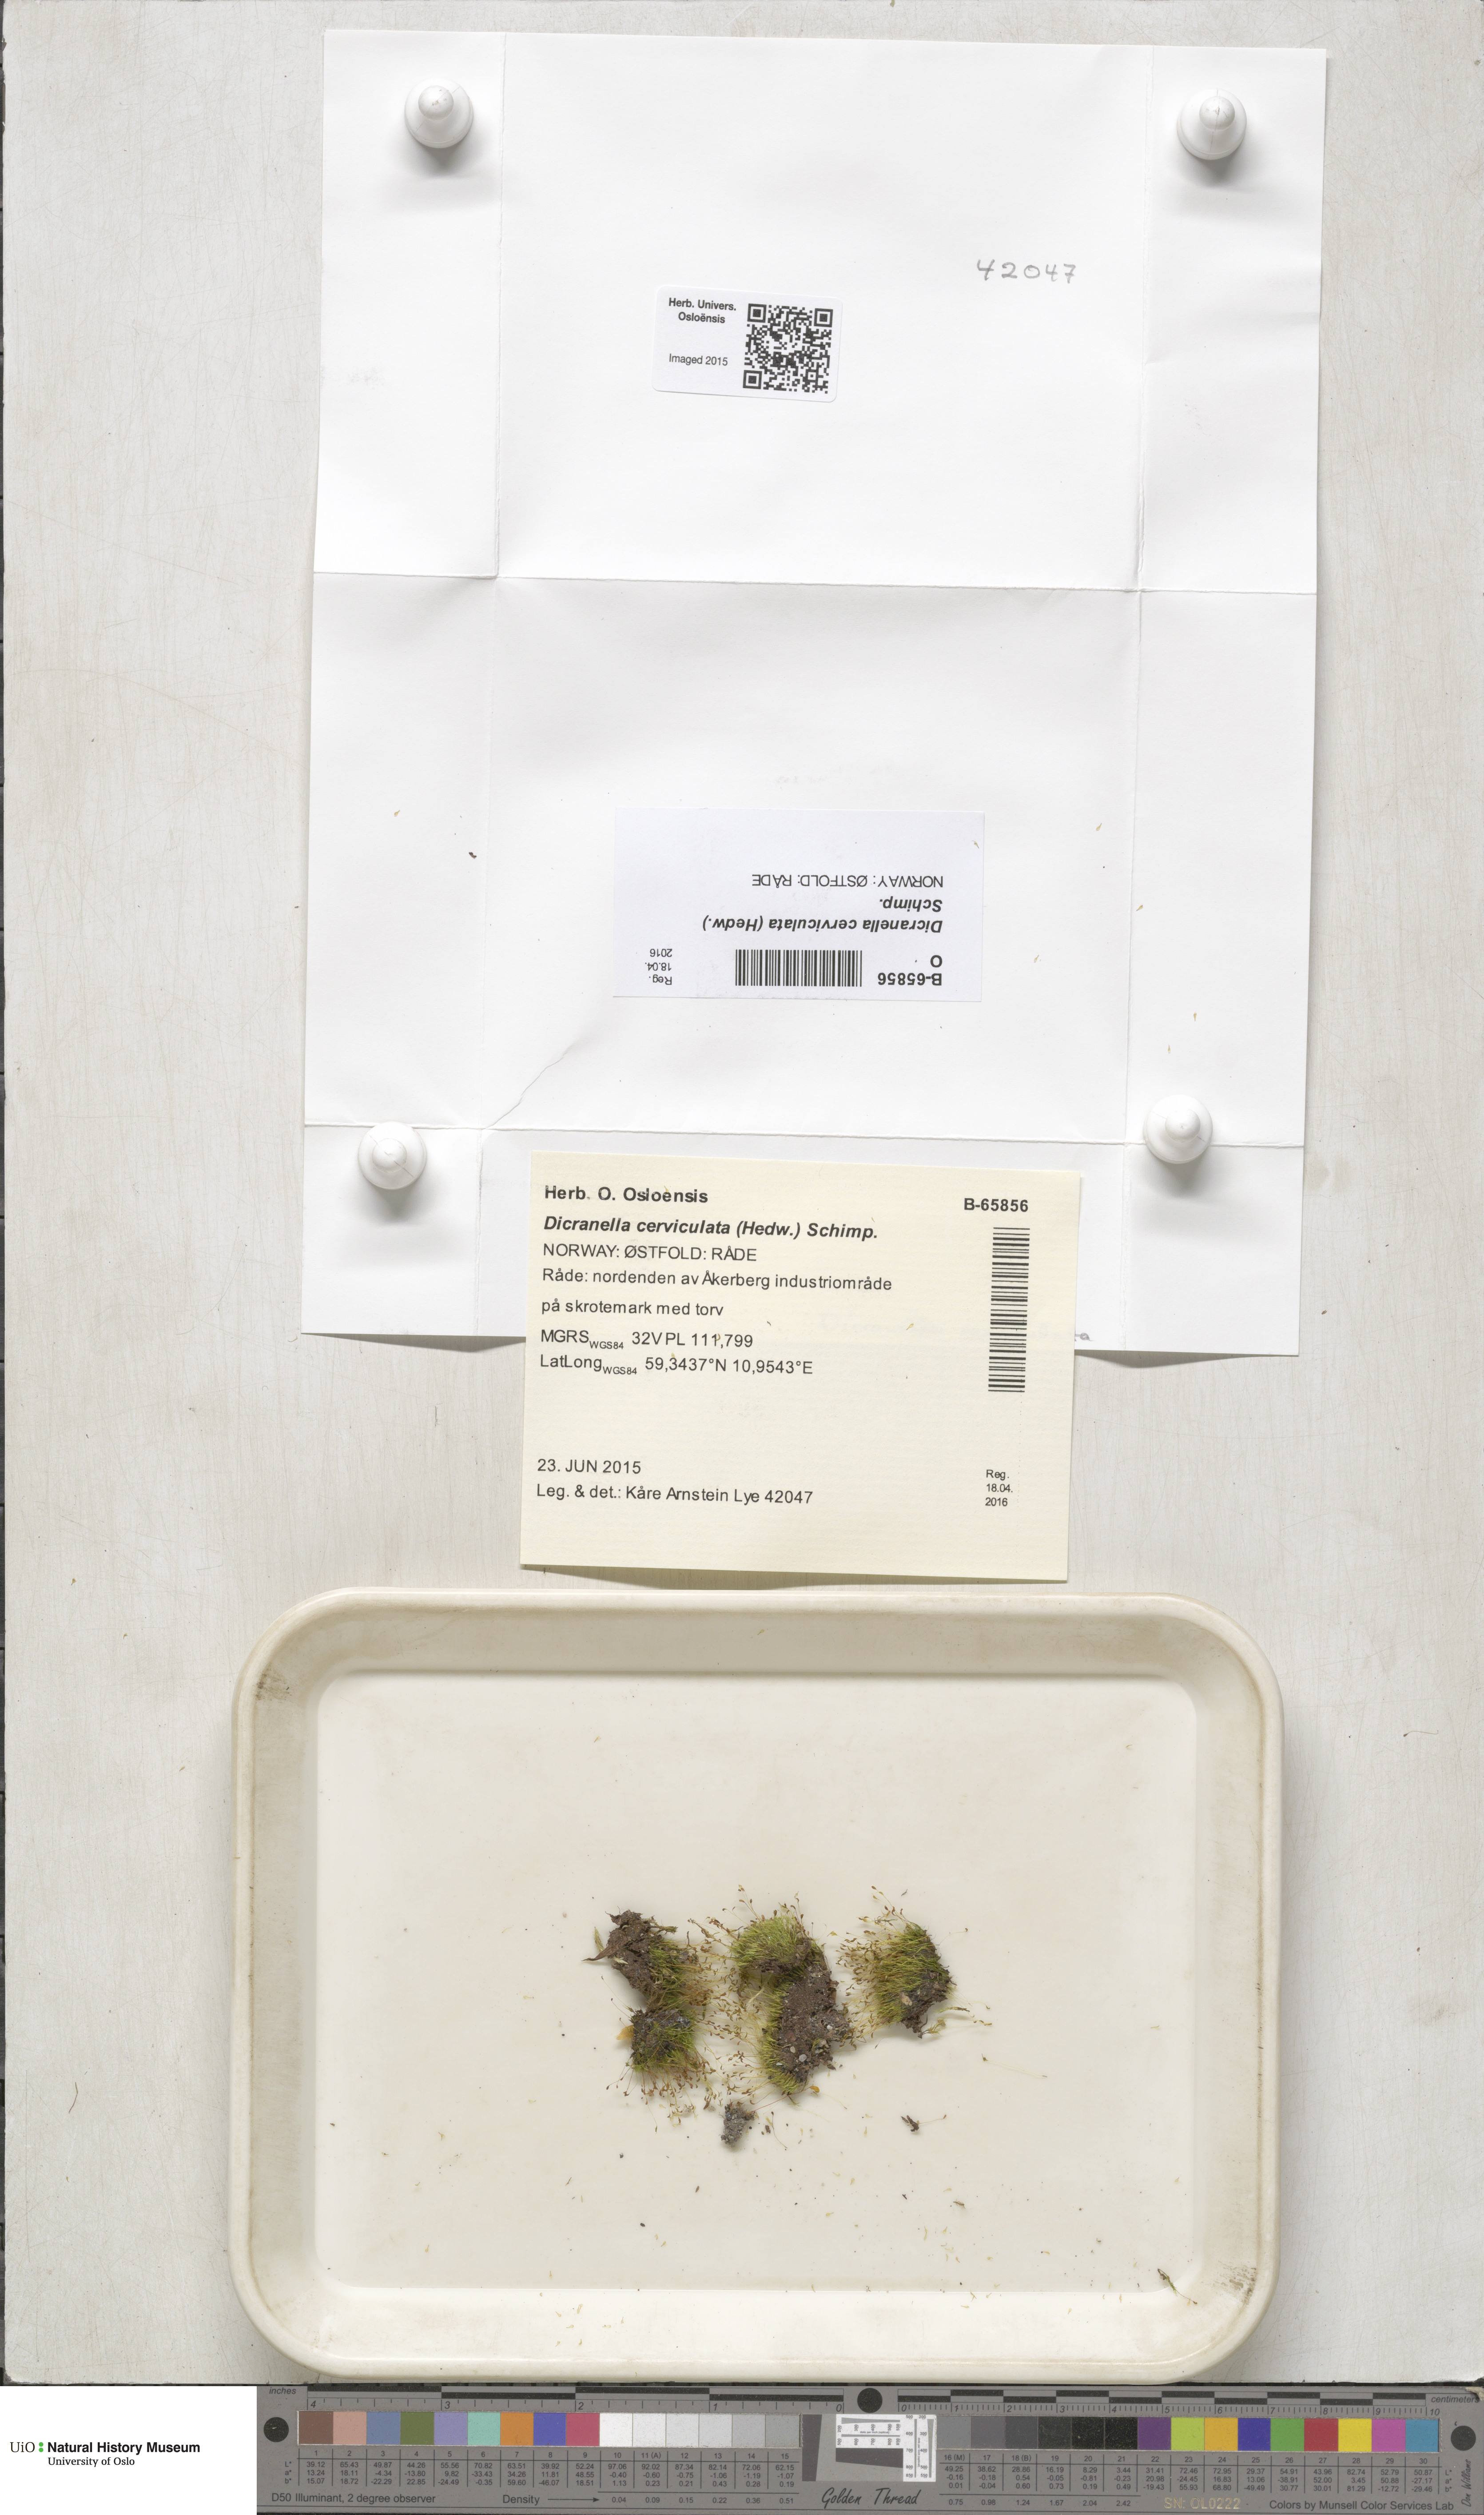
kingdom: Plantae
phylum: Bryophyta
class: Bryopsida
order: Dicranales
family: Dicranellaceae
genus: Dicranella
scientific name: Dicranella cerviculata
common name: Spur-necked forklet moss
